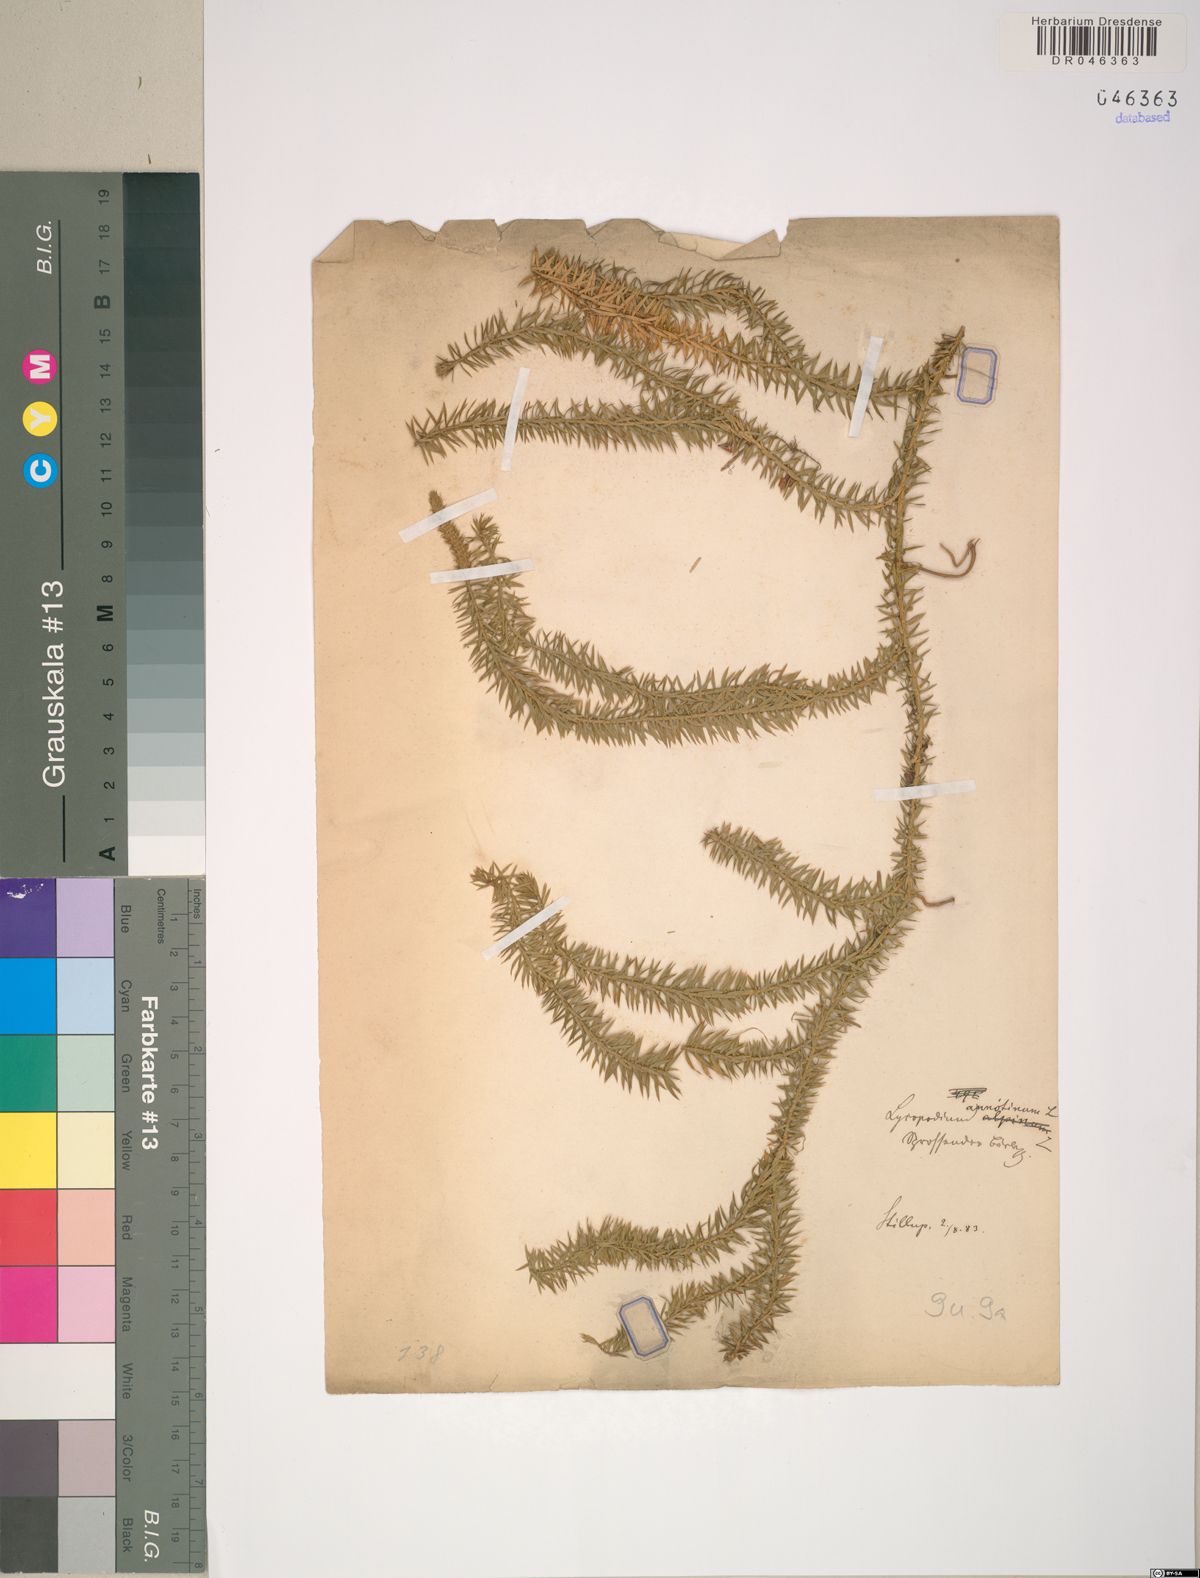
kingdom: Plantae
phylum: Tracheophyta
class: Lycopodiopsida
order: Lycopodiales
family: Lycopodiaceae
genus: Spinulum
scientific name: Spinulum annotinum
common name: Interrupted club-moss
